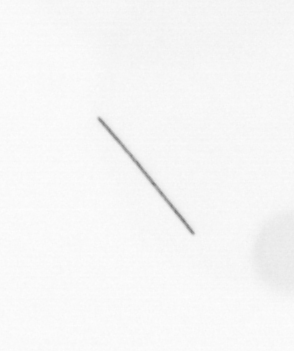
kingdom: Chromista
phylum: Ochrophyta
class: Bacillariophyceae
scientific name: Bacillariophyceae
